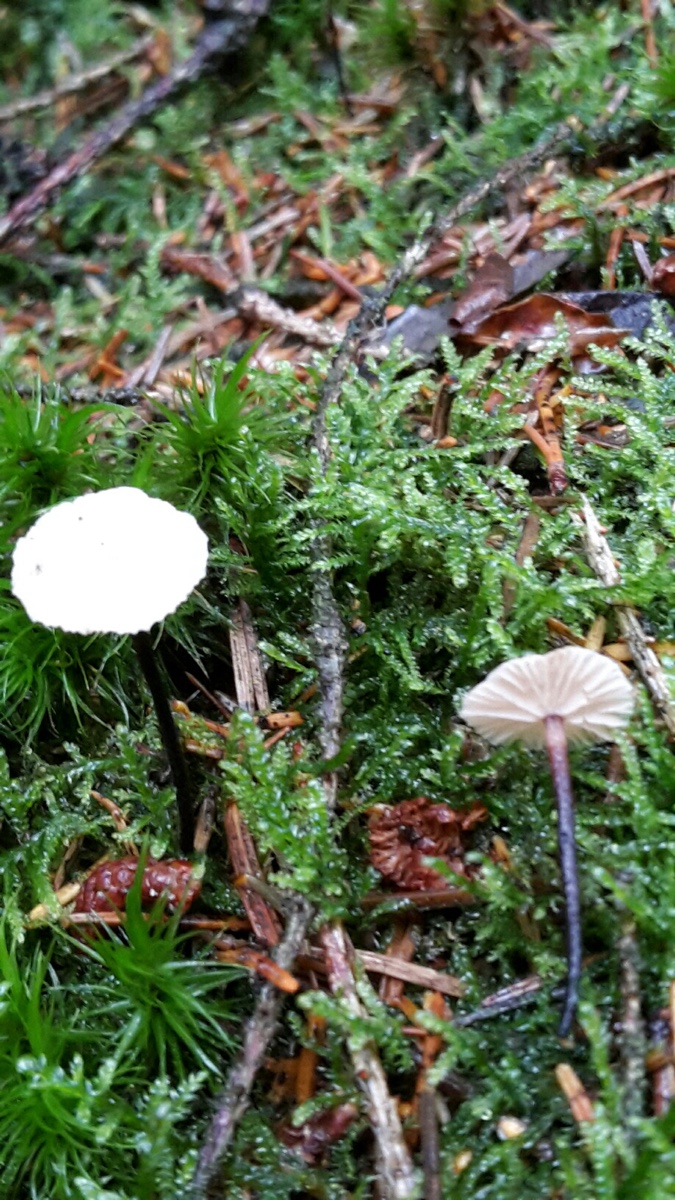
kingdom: Fungi
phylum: Basidiomycota
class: Agaricomycetes
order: Agaricales
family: Omphalotaceae
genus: Paragymnopus
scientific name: Paragymnopus perforans
